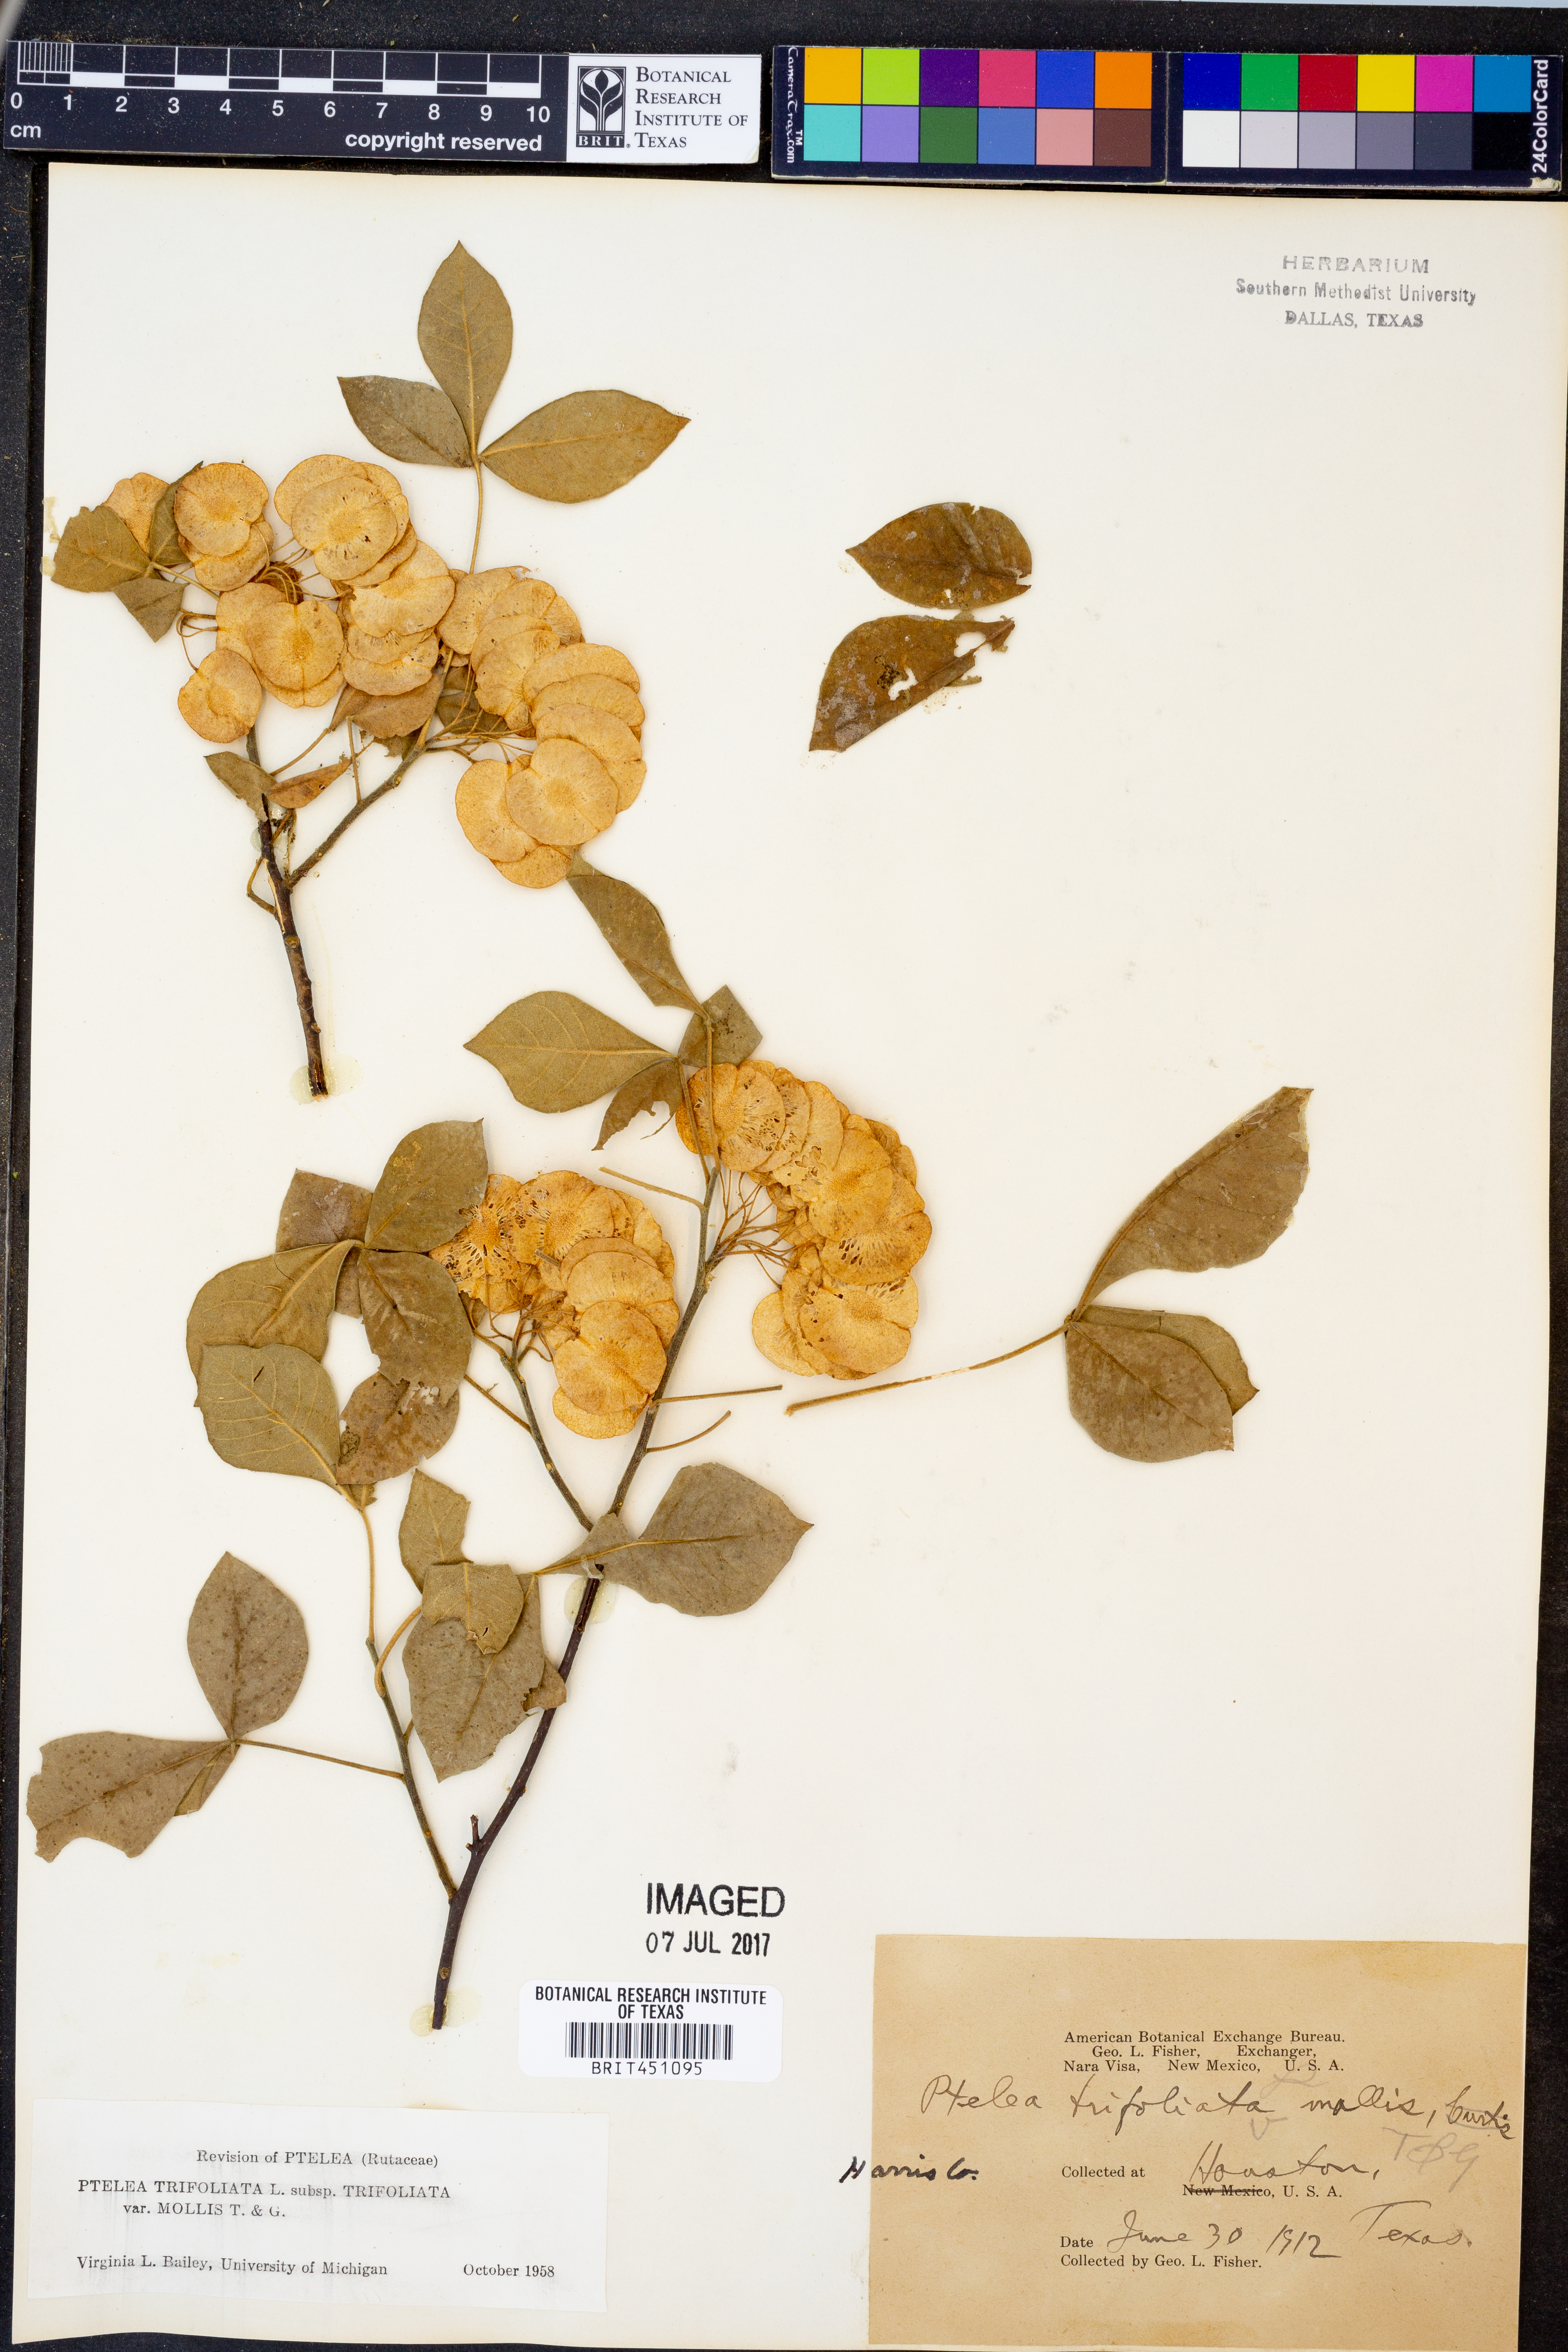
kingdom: Plantae
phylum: Tracheophyta
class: Magnoliopsida
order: Sapindales
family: Rutaceae
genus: Ptelea
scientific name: Ptelea trifoliata
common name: Common hop-tree
